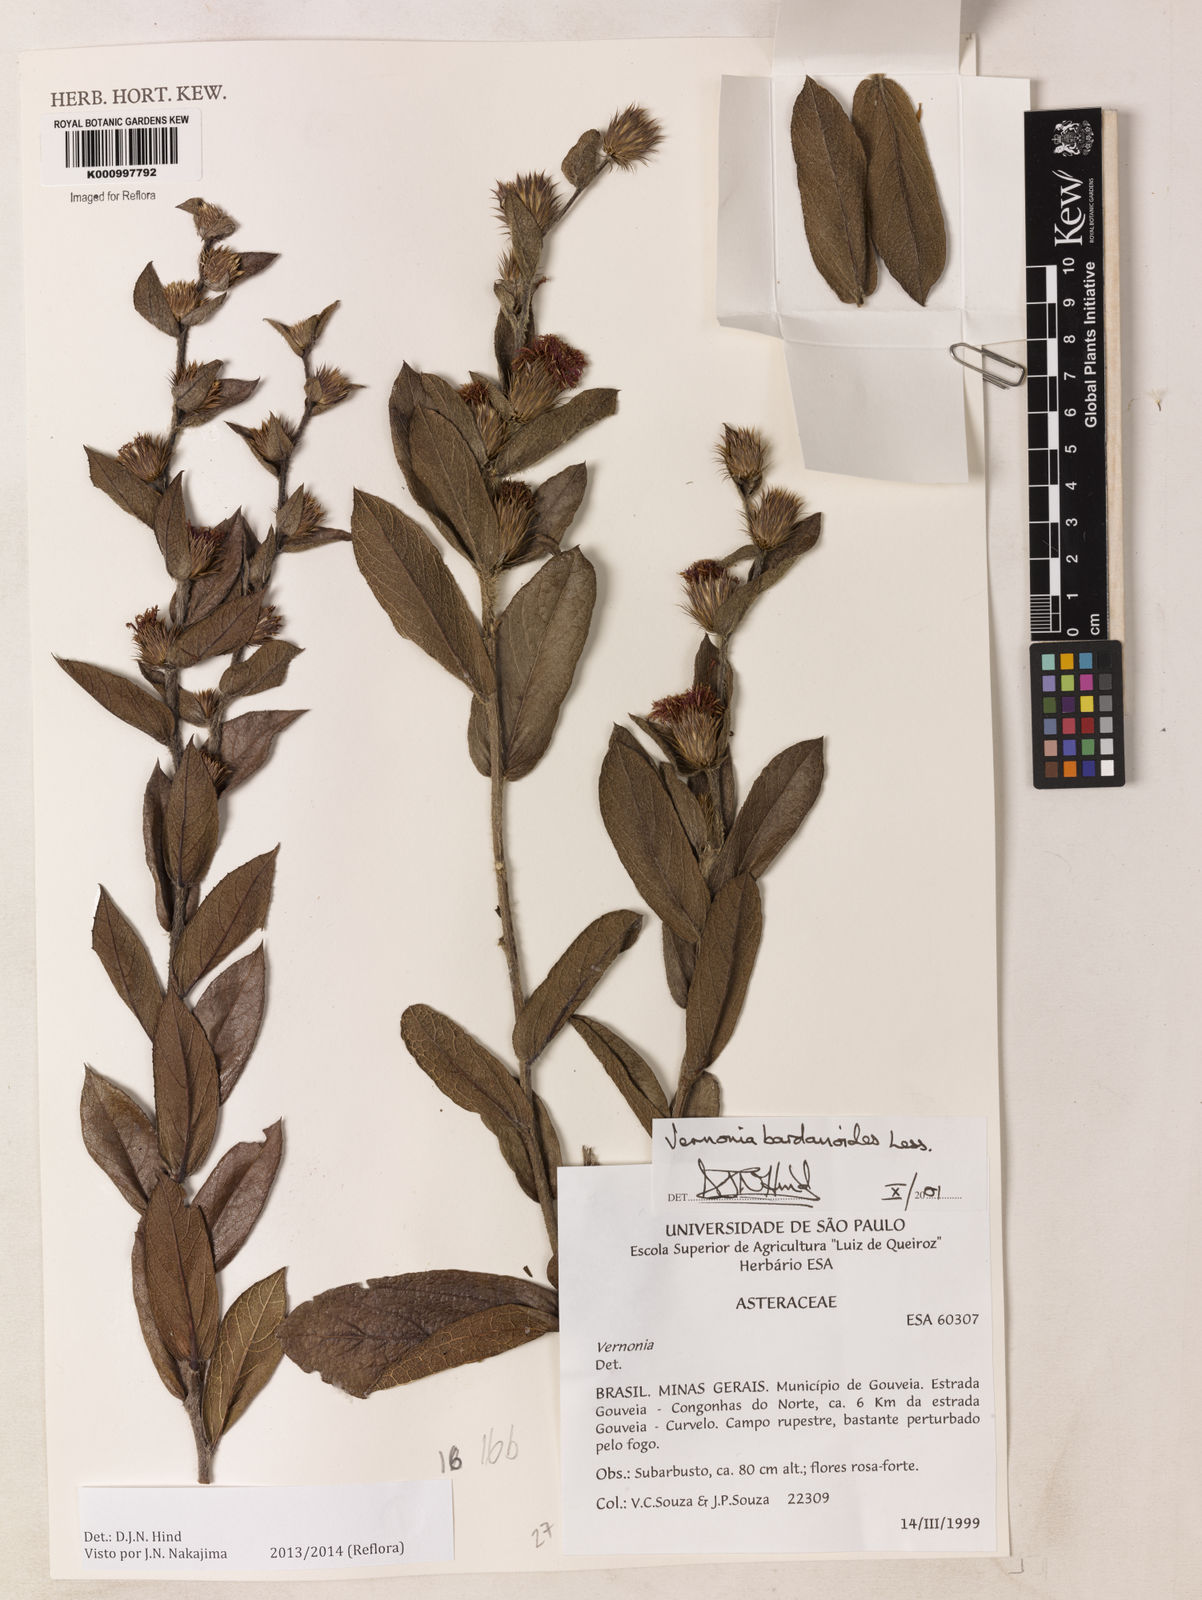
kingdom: Plantae
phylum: Tracheophyta
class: Magnoliopsida
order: Asterales
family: Asteraceae
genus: Lessingianthus
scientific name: Lessingianthus bardanioides
